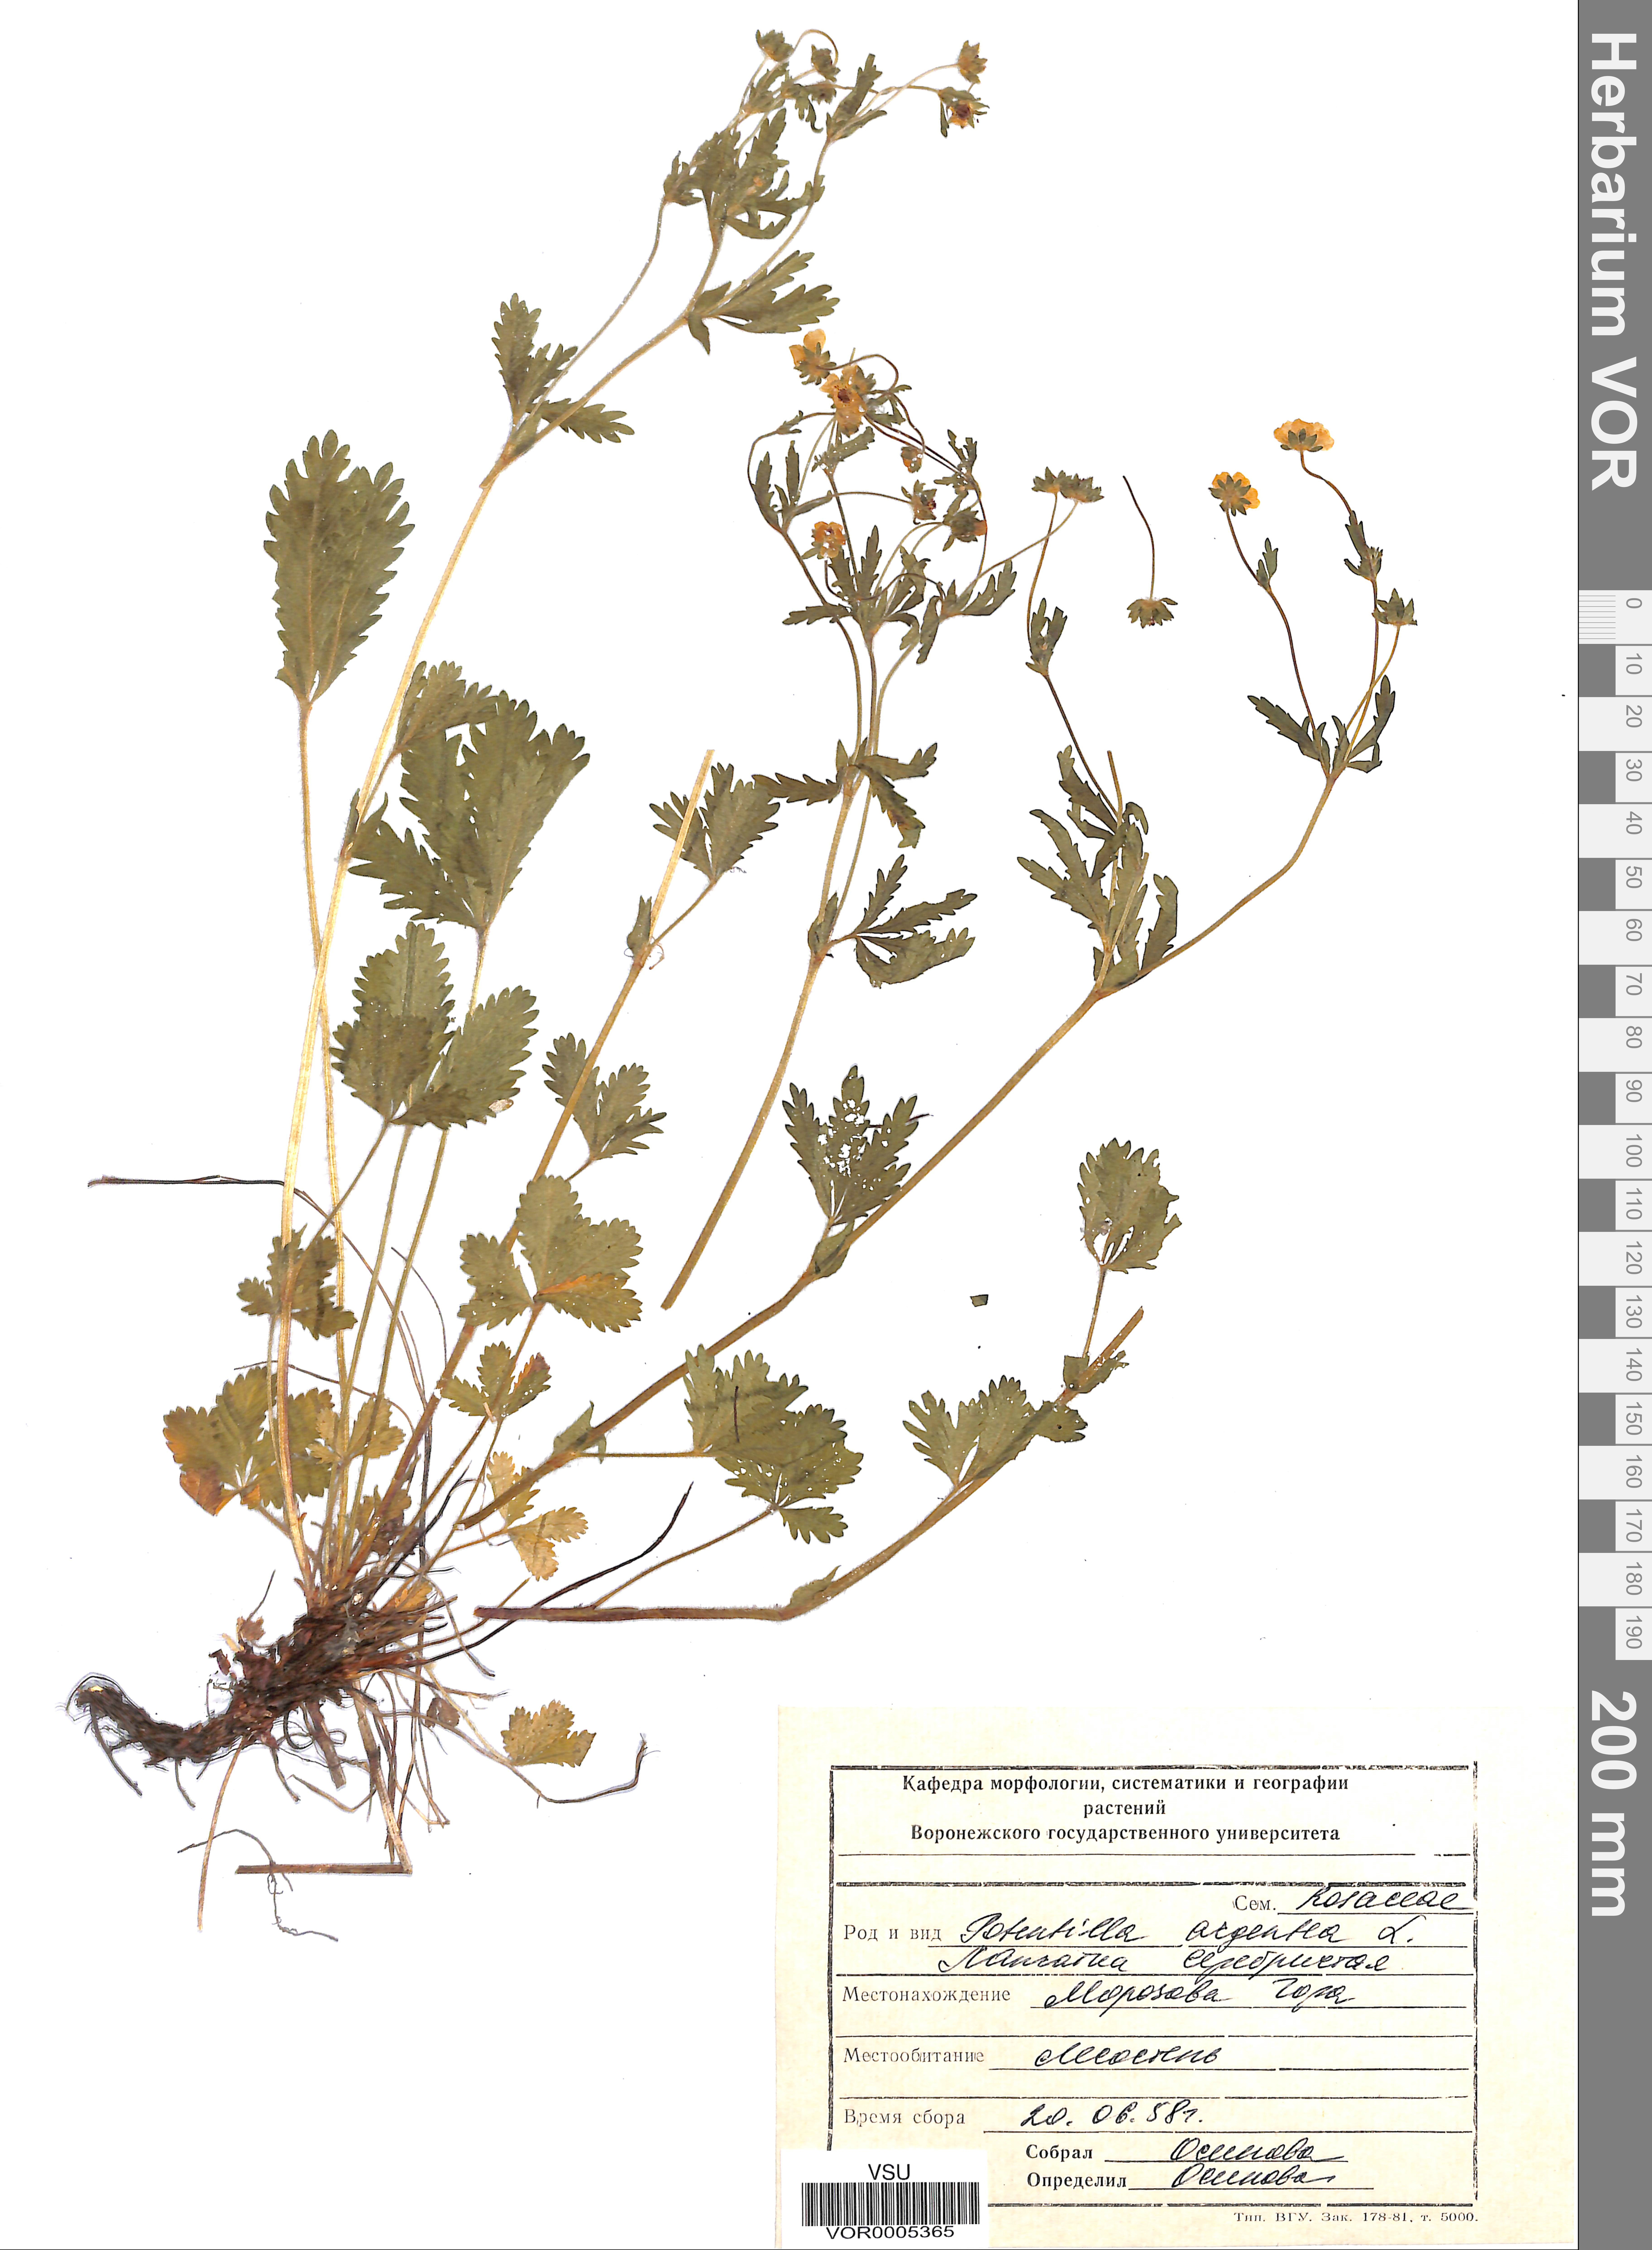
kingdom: Plantae
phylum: Tracheophyta
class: Magnoliopsida
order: Rosales
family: Rosaceae
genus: Potentilla
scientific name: Potentilla thuringiaca
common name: European cinquefoil
